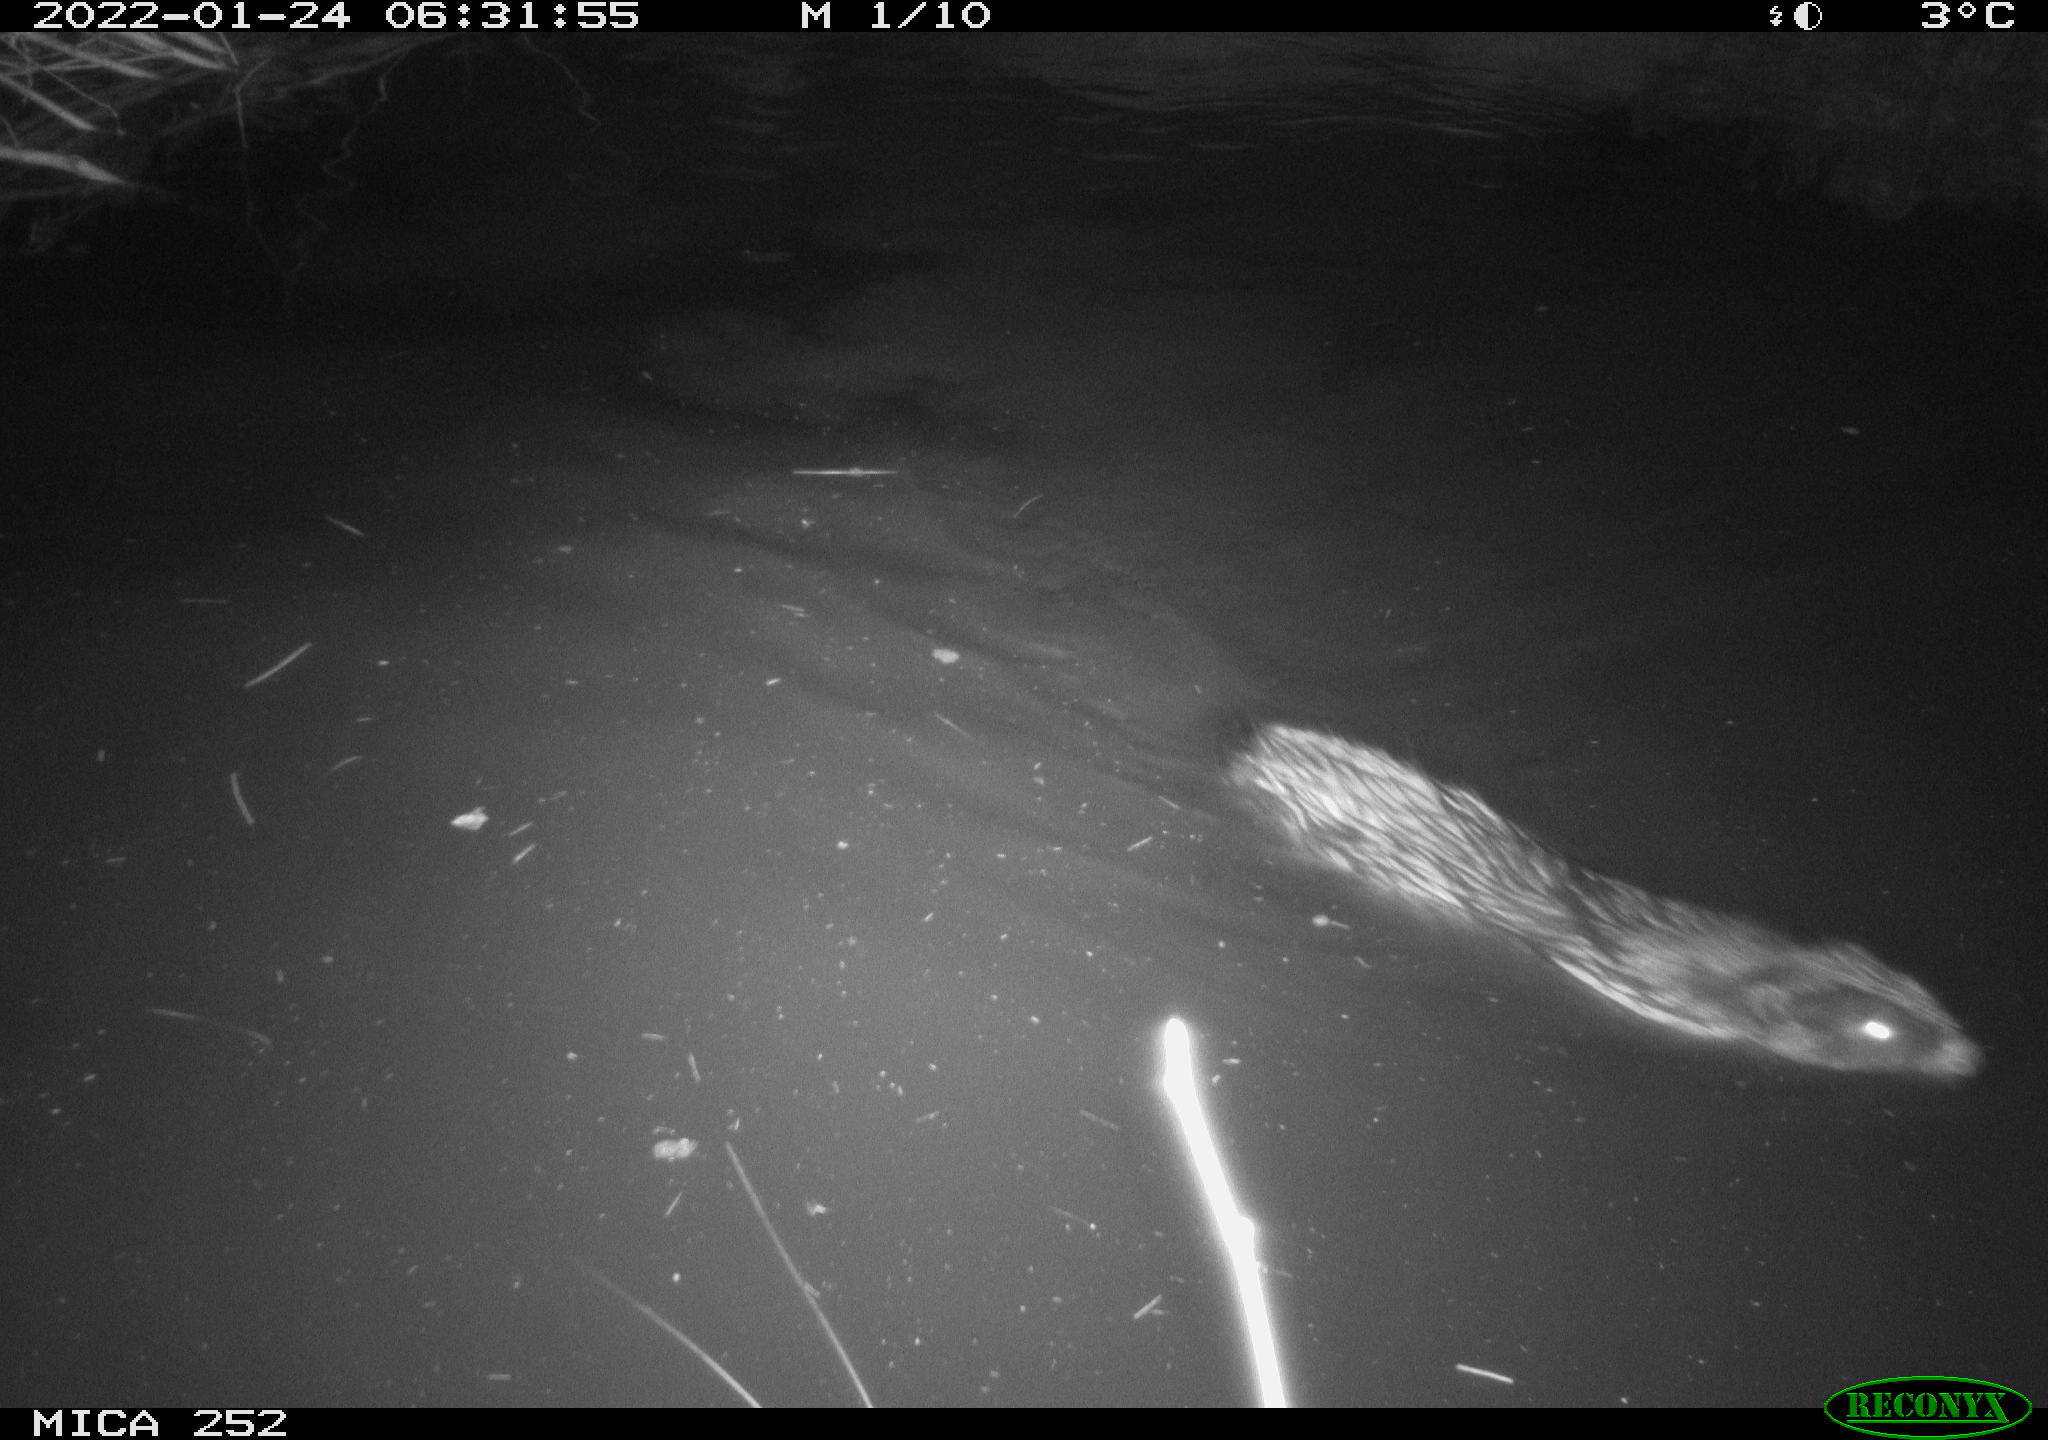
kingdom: Animalia
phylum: Chordata
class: Mammalia
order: Rodentia
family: Castoridae
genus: Castor
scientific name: Castor fiber
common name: Eurasian beaver
